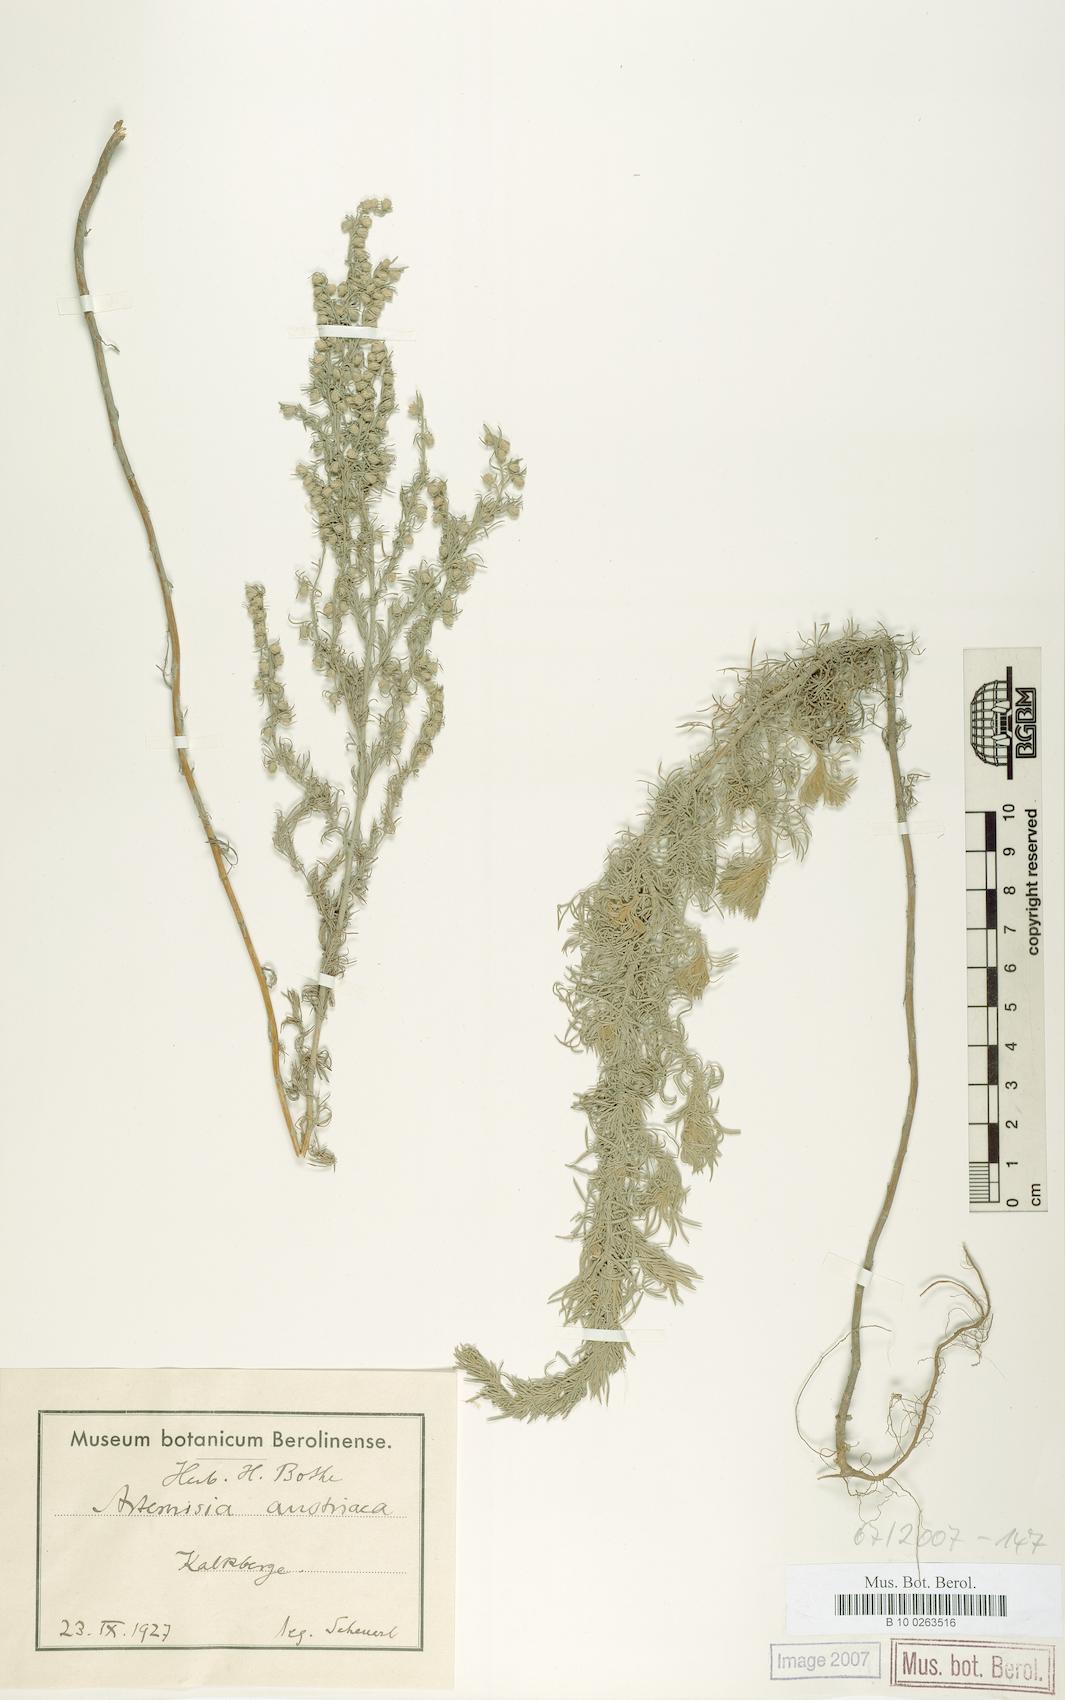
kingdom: Plantae
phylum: Tracheophyta
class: Magnoliopsida
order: Asterales
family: Asteraceae
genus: Artemisia
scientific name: Artemisia austriaca
